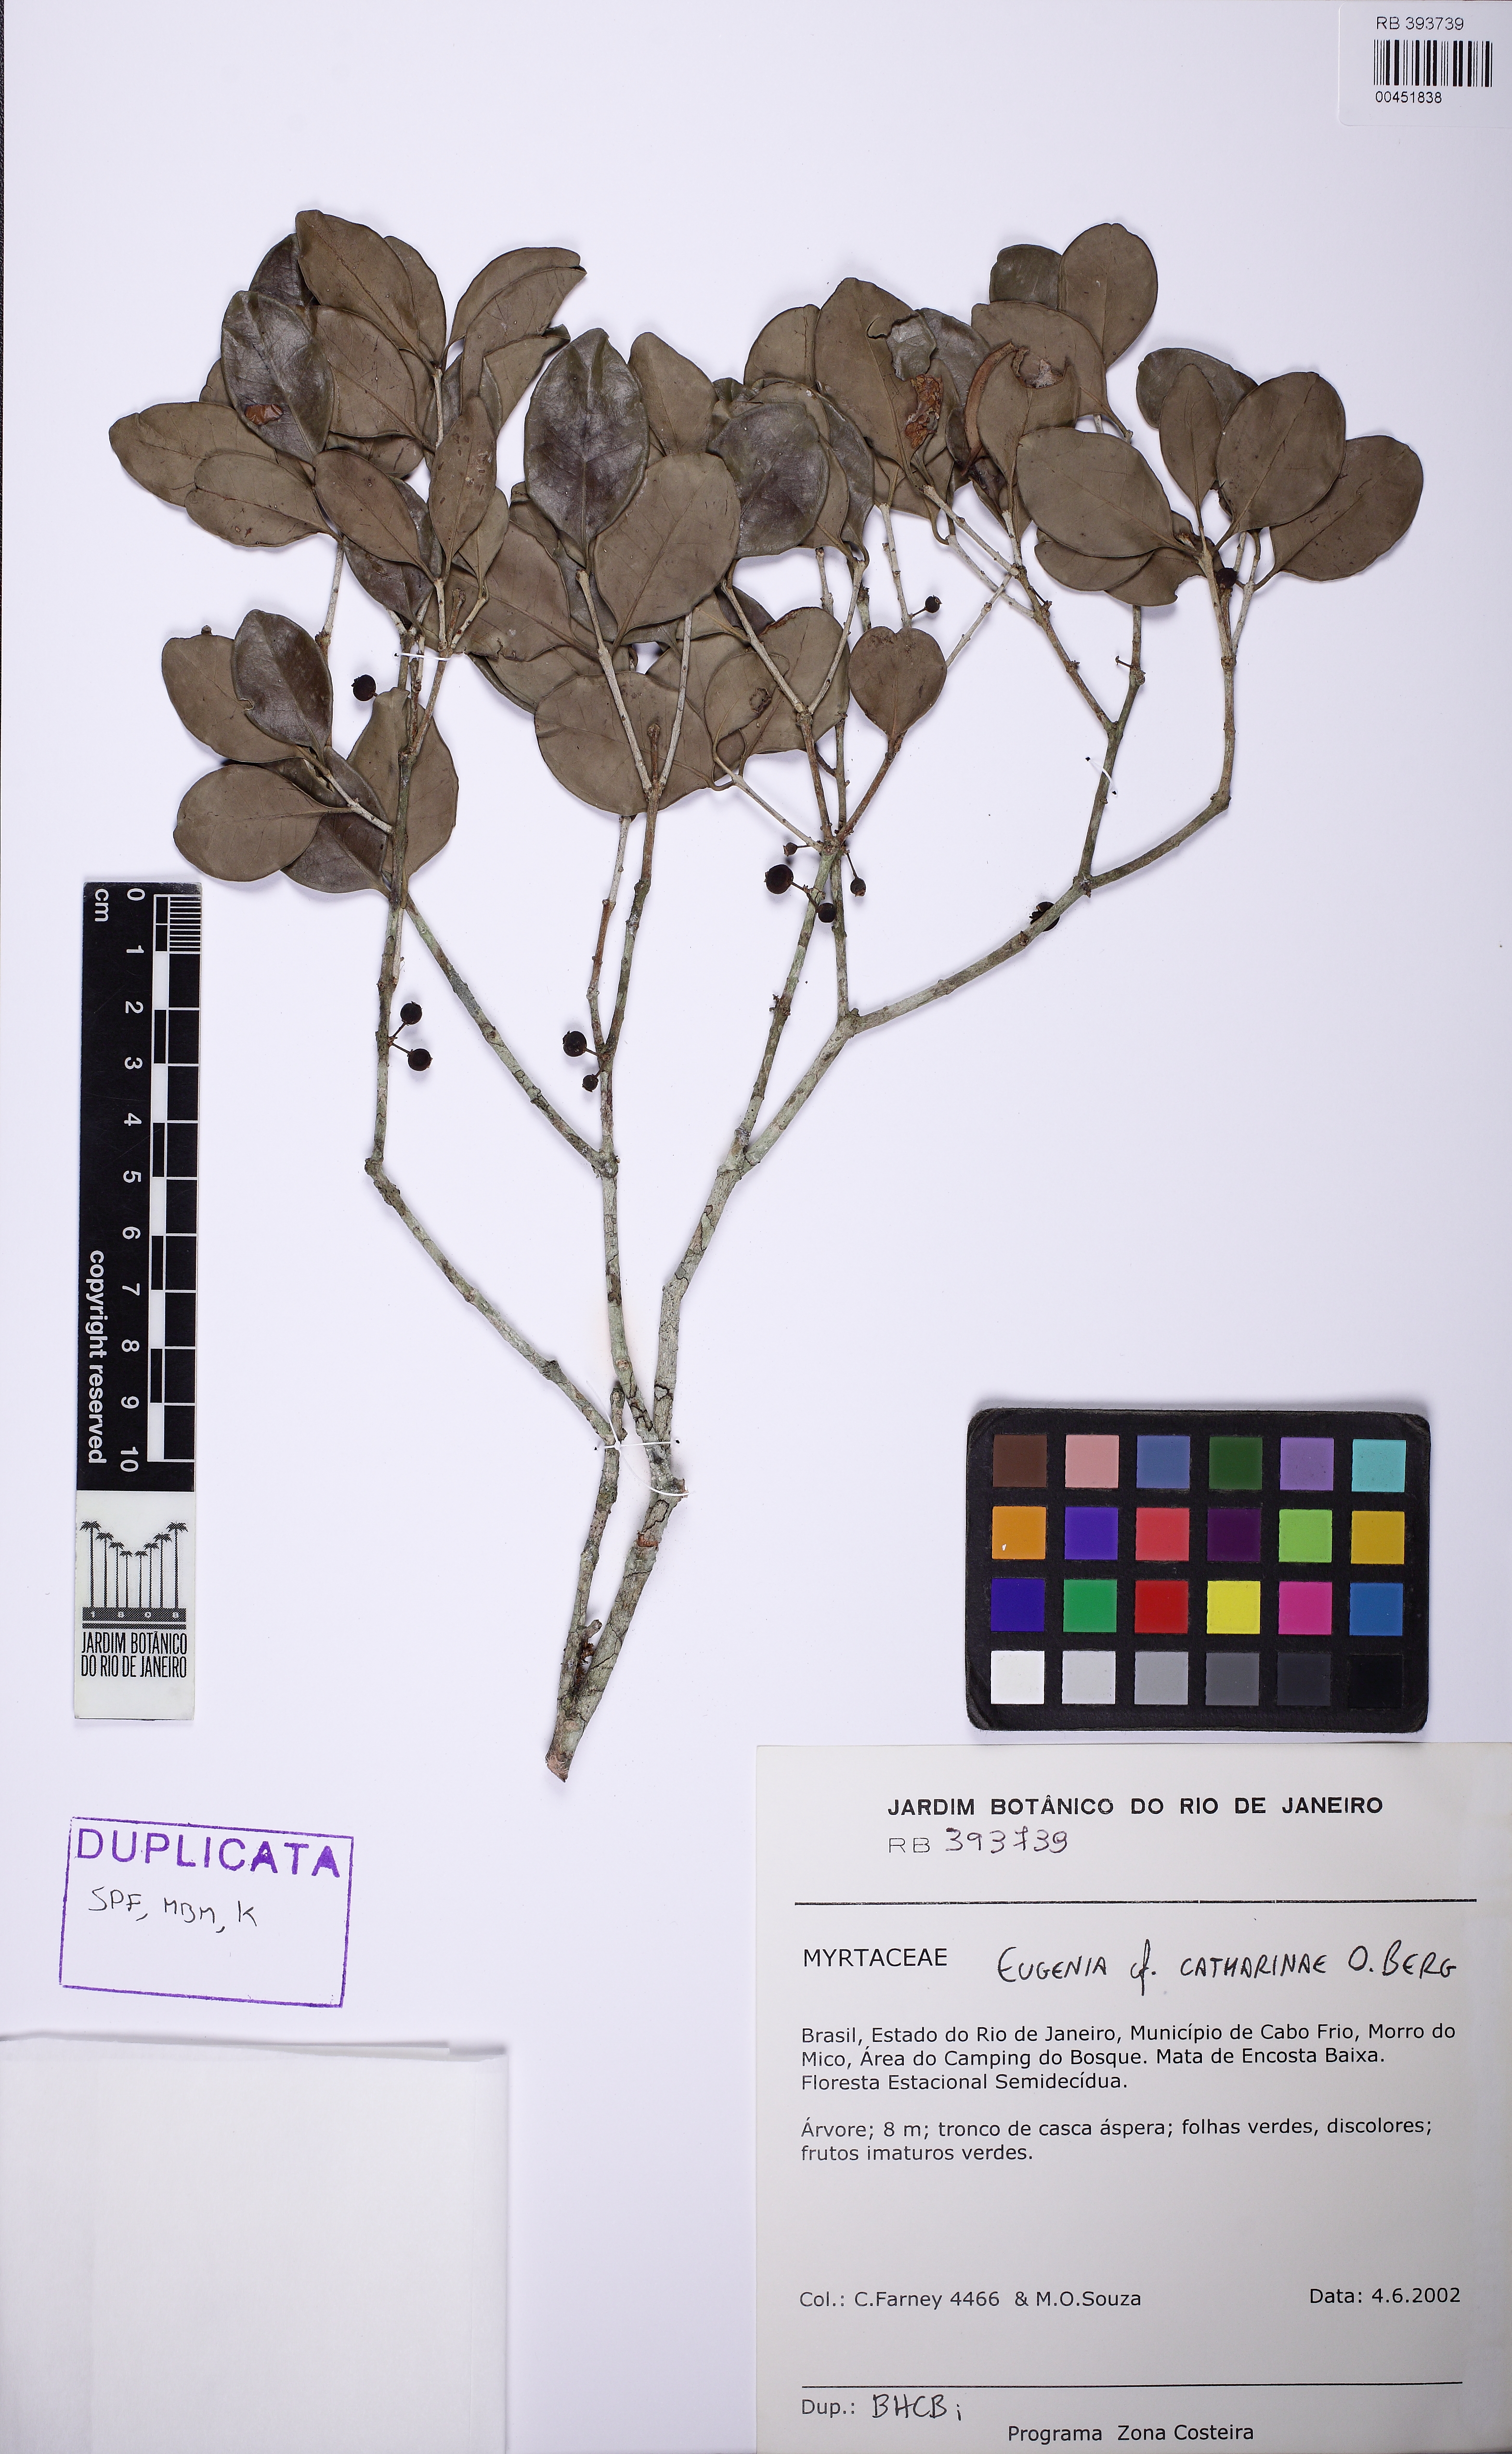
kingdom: Plantae
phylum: Tracheophyta
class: Magnoliopsida
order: Myrtales
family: Myrtaceae
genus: Eugenia
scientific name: Eugenia catharinae
